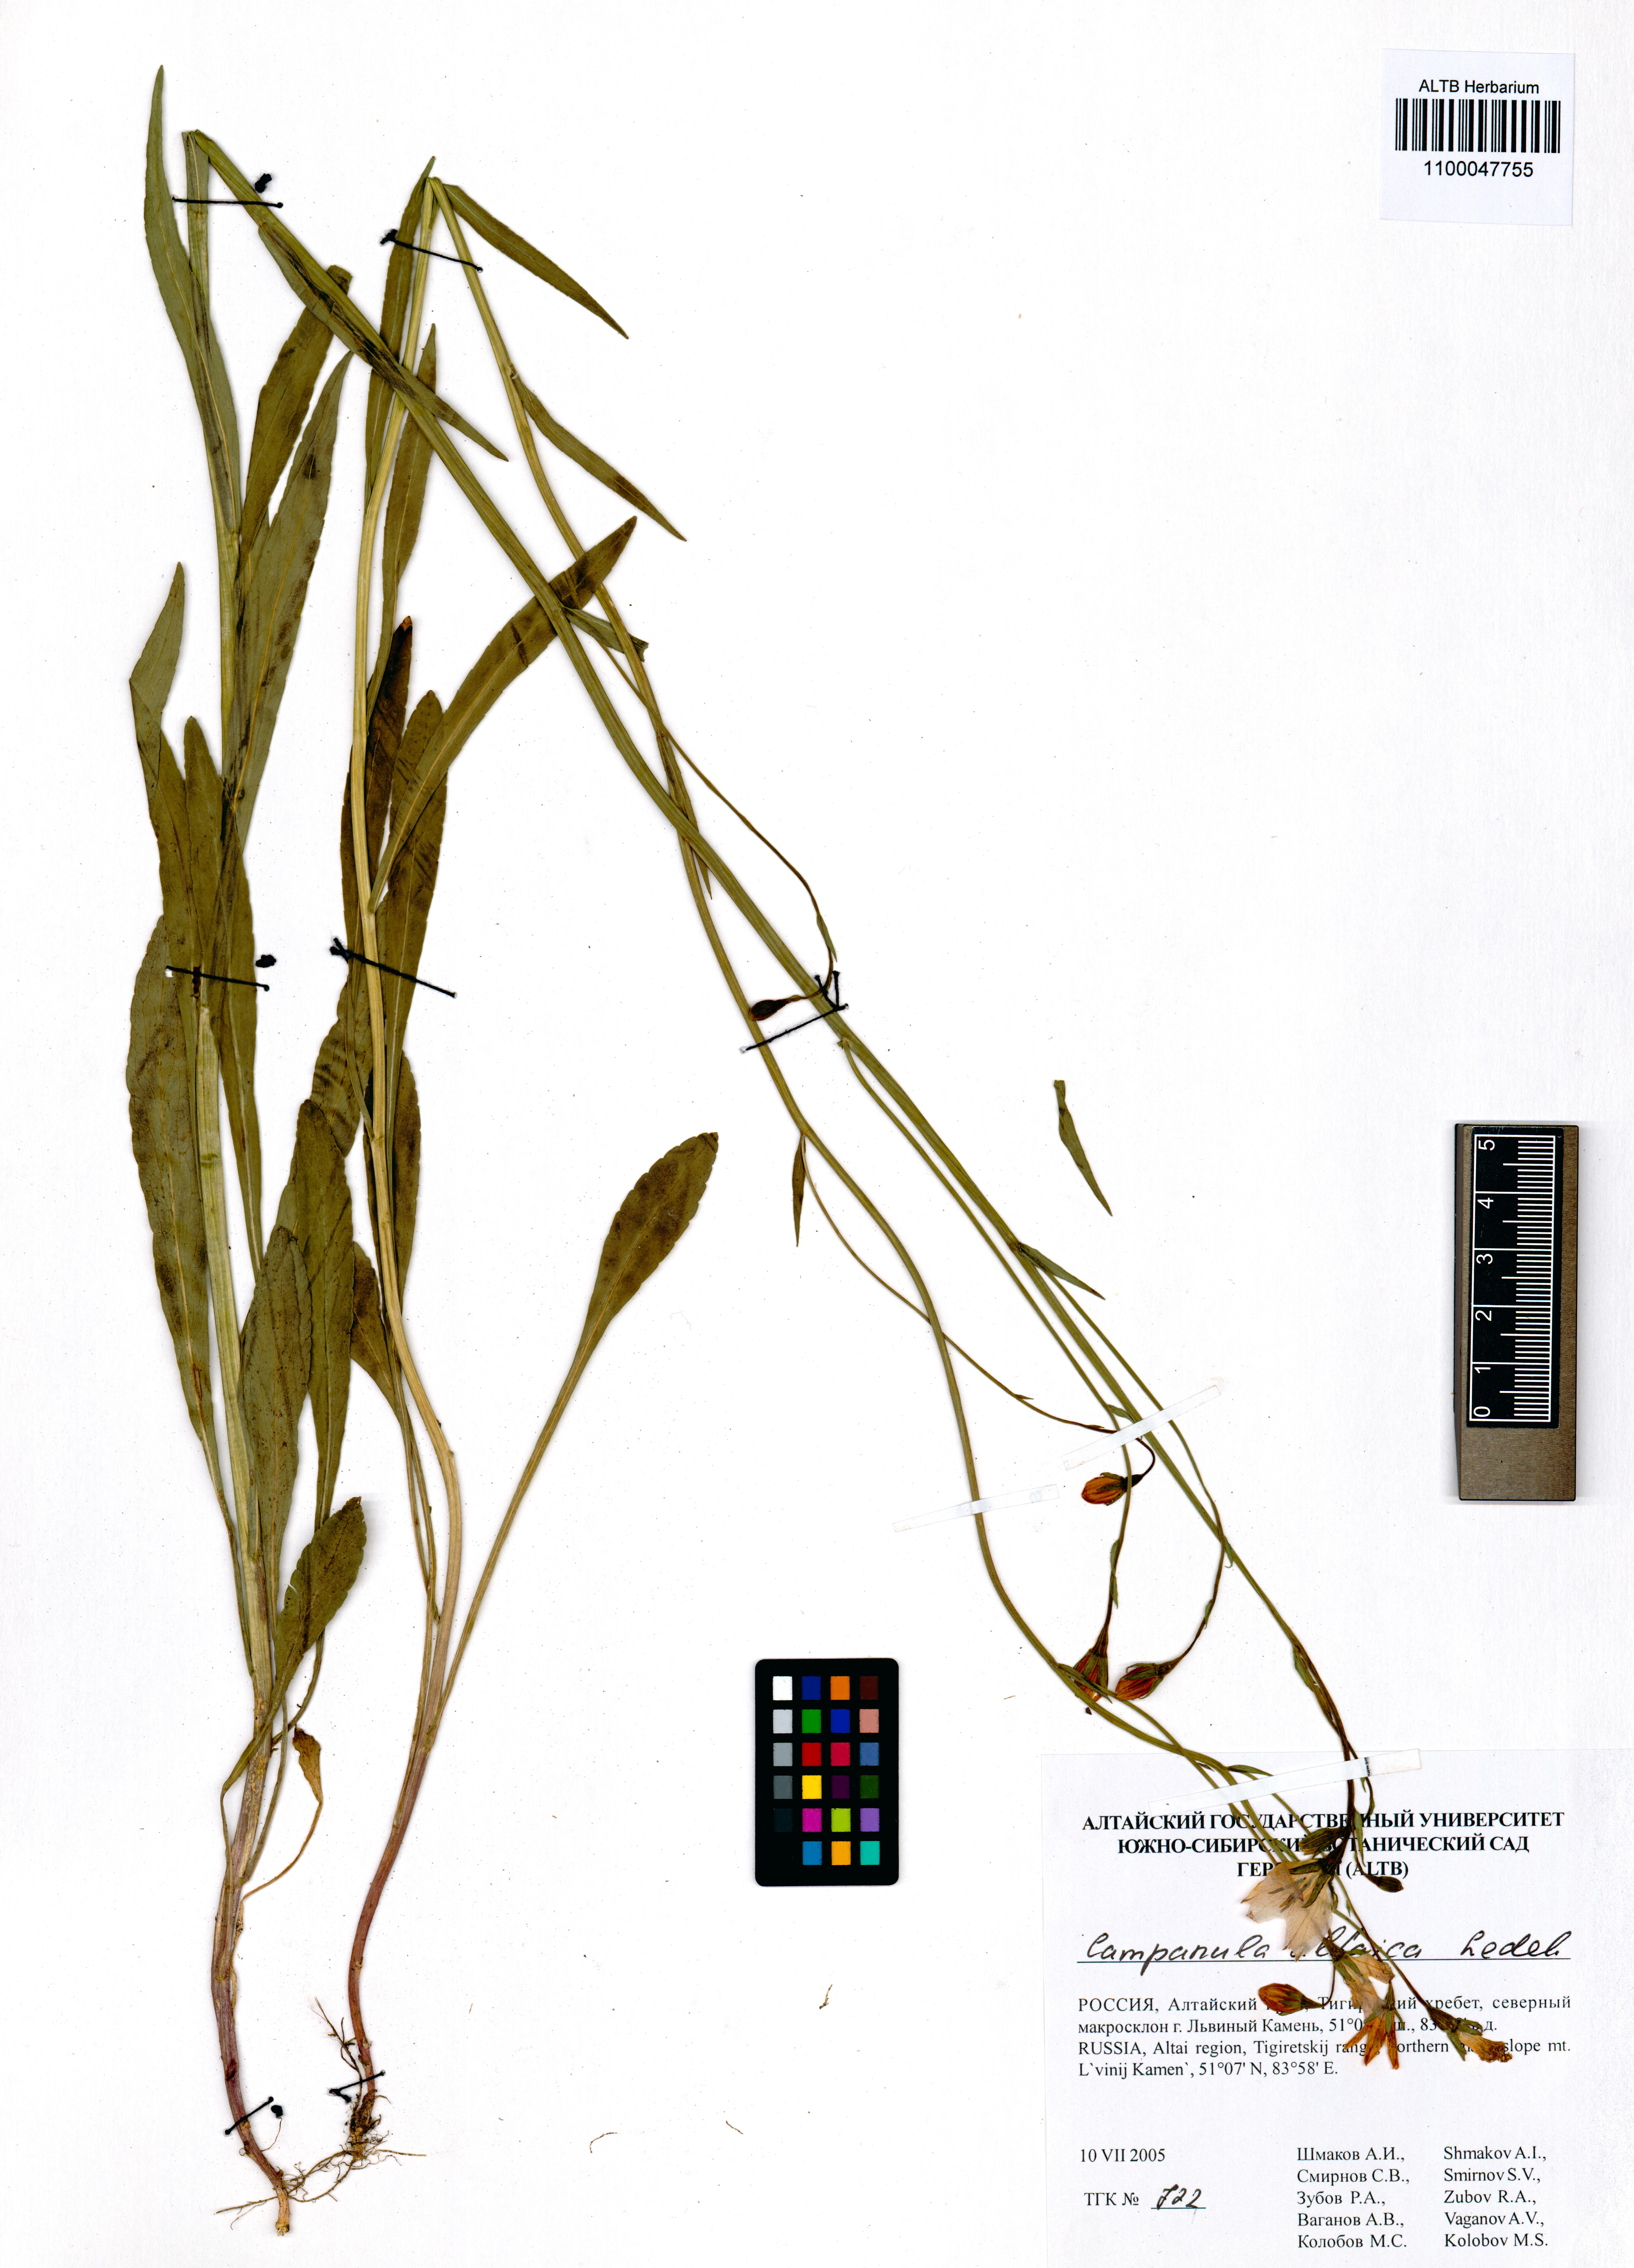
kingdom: Plantae
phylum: Tracheophyta
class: Magnoliopsida
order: Asterales
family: Campanulaceae
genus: Campanula
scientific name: Campanula stevenii
